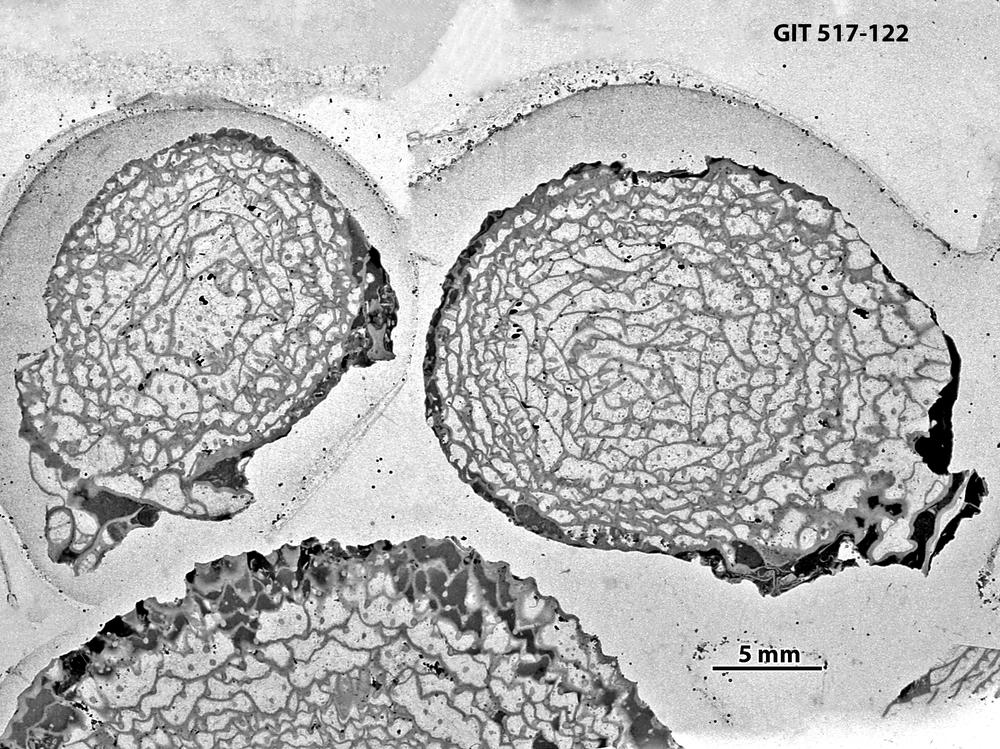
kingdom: Animalia
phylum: Cnidaria
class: Anthozoa
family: Cyathophyllidae
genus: Cystiphyllum
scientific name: Cystiphyllum visbyense
